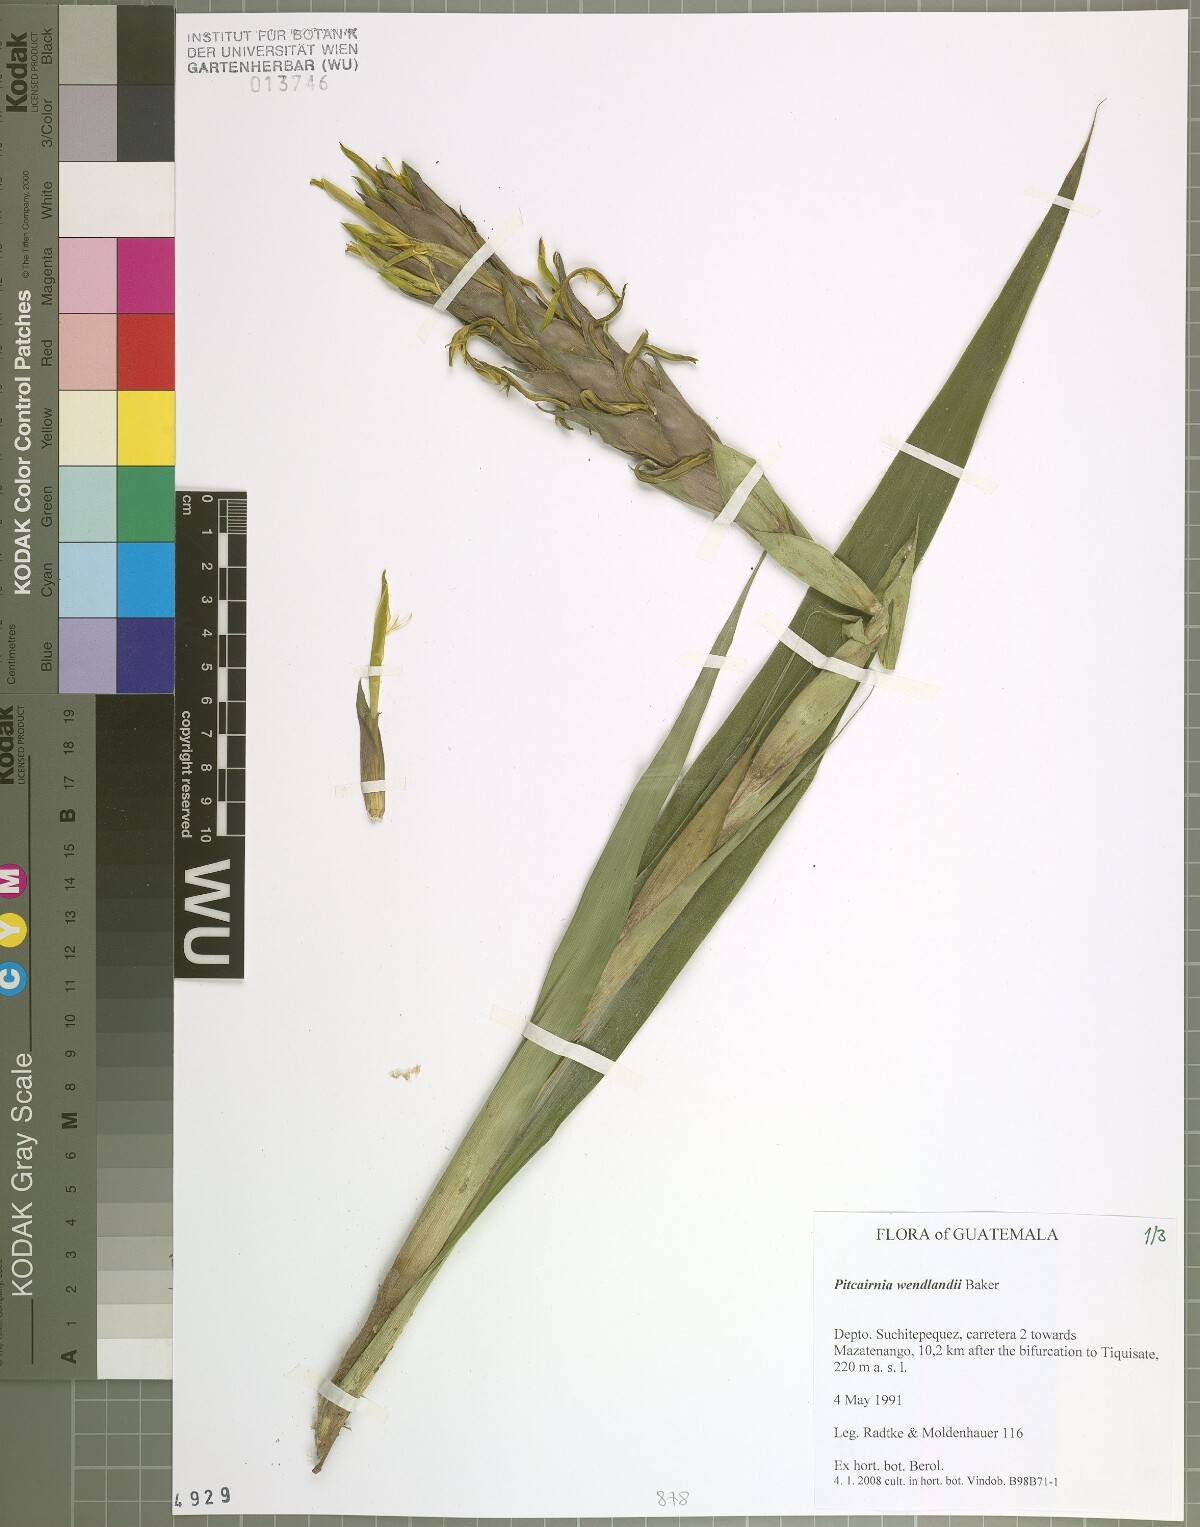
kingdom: Plantae
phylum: Tracheophyta
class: Liliopsida
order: Poales
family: Bromeliaceae
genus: Pitcairnia
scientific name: Pitcairnia wendlandii
